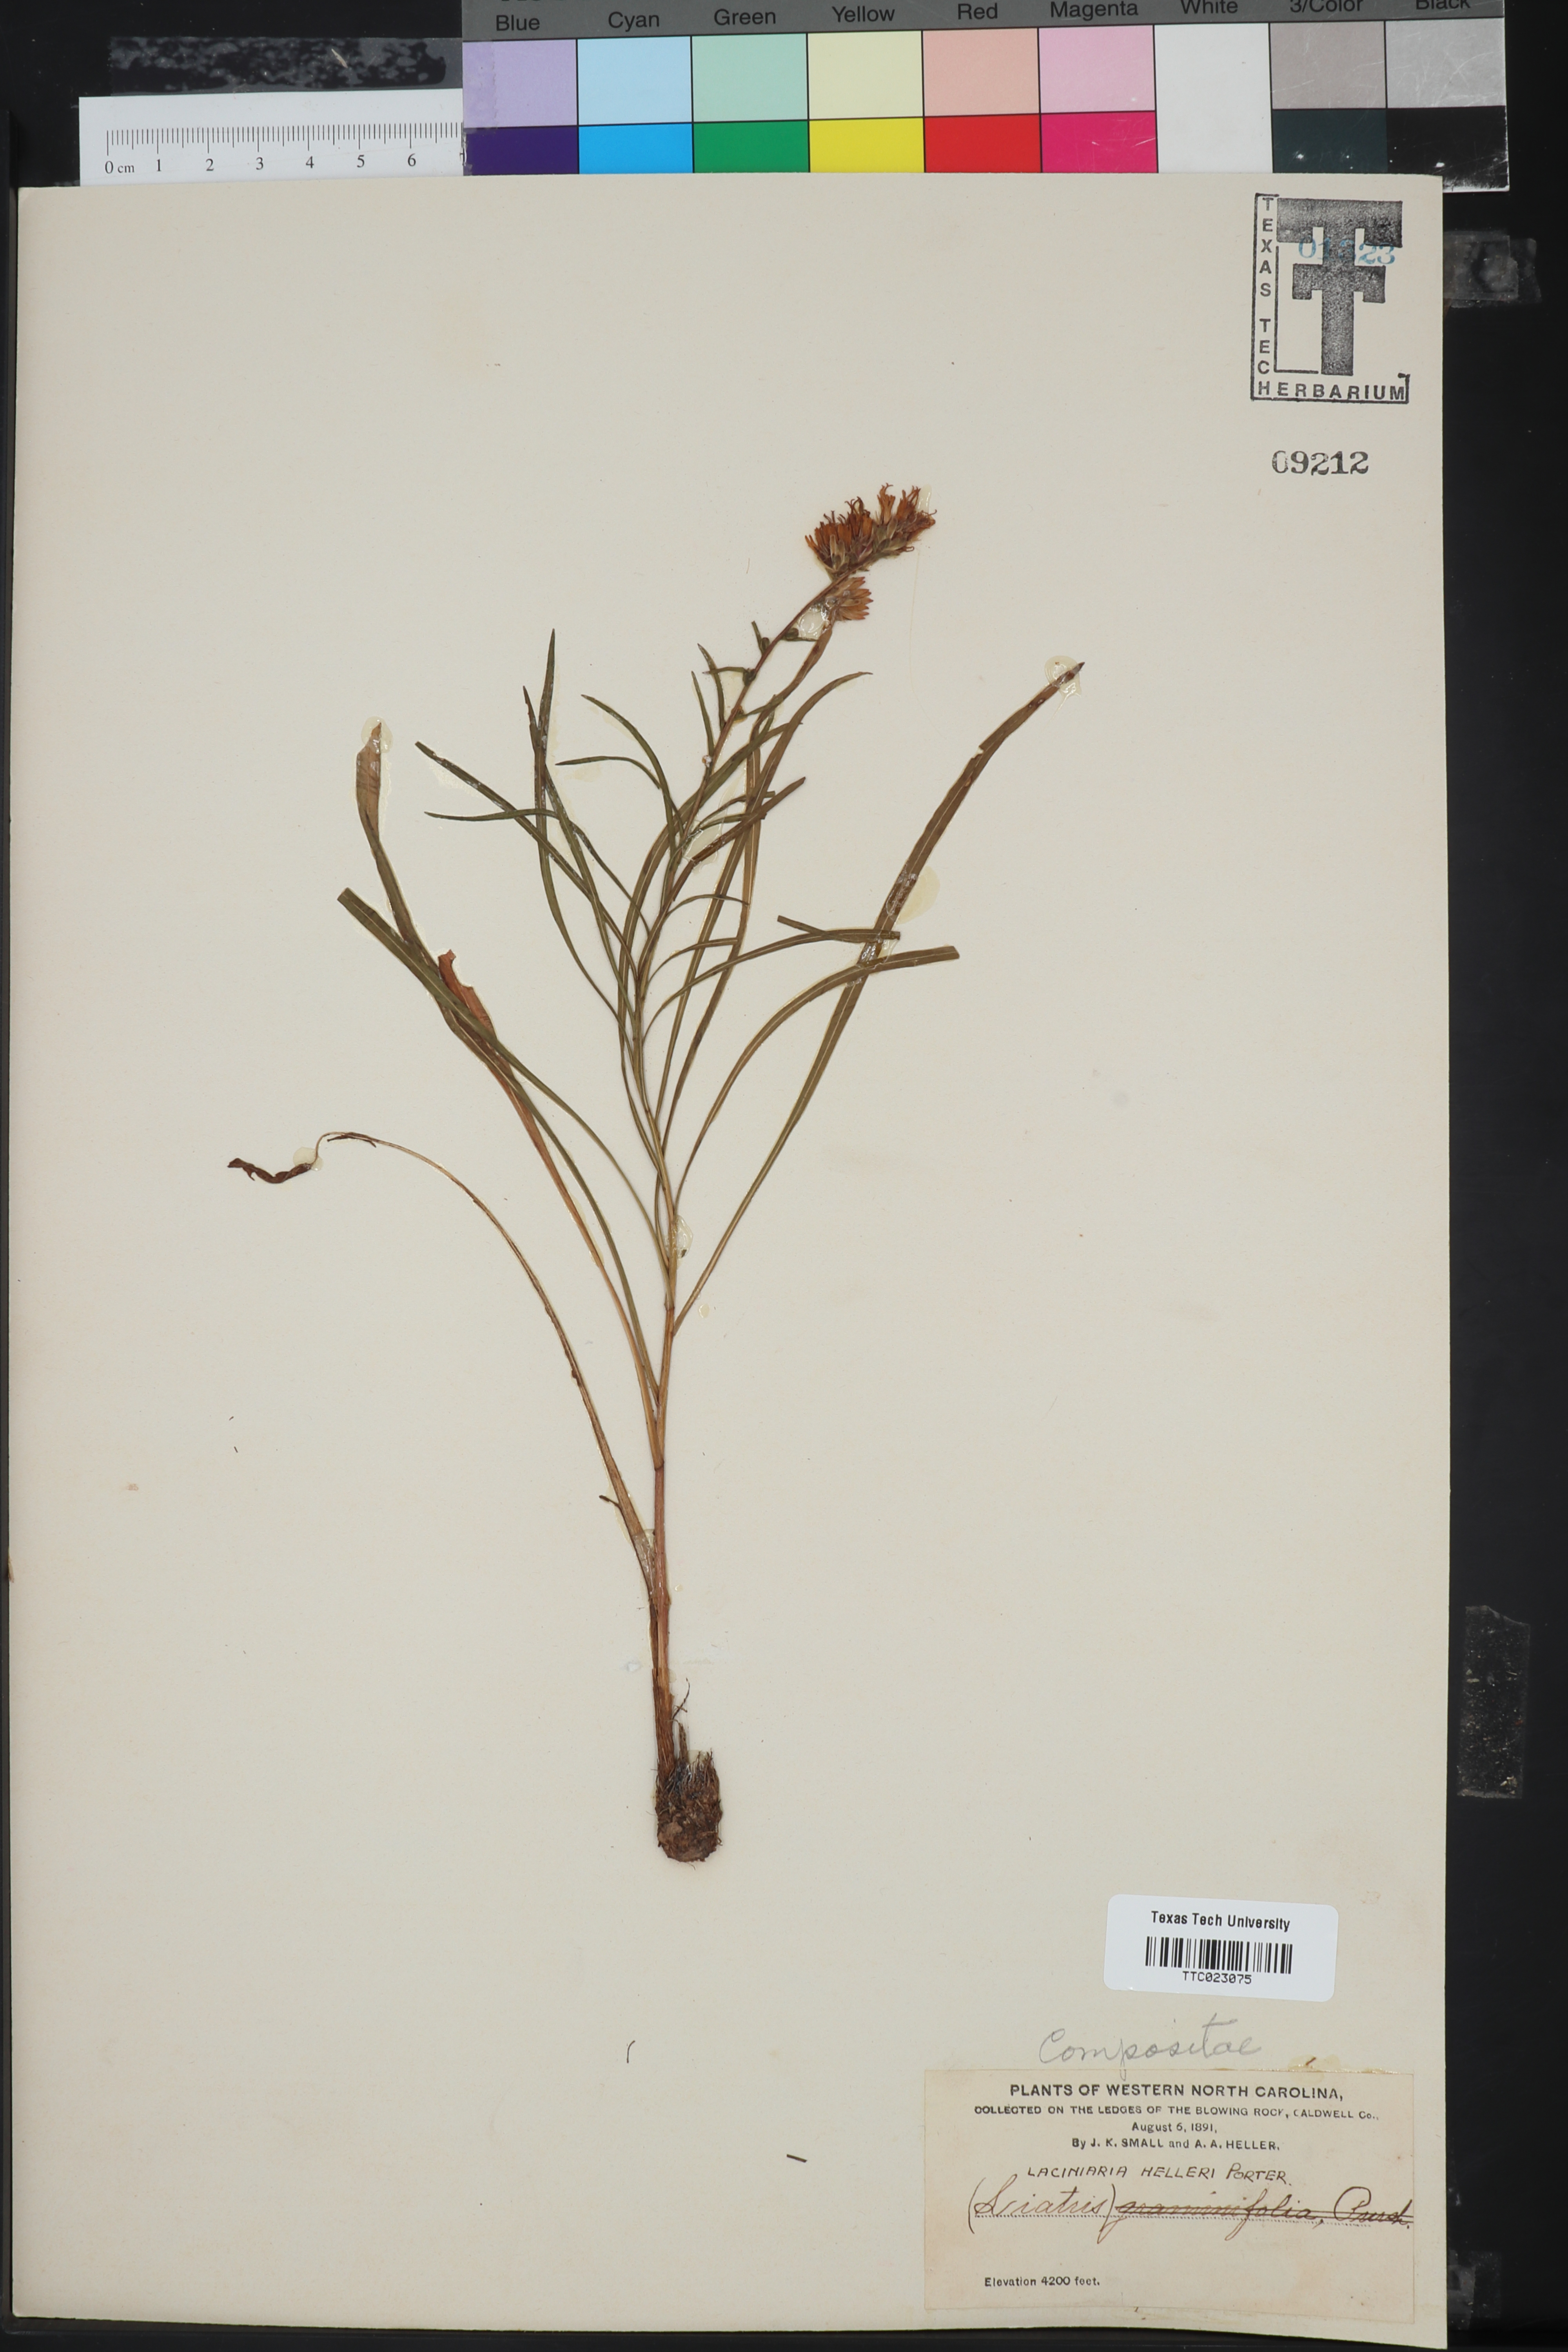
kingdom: Plantae
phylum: Tracheophyta
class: Magnoliopsida
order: Asterales
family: Asteraceae
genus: Liatris
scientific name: Liatris pilosa
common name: Grass-leaf gayfeather
